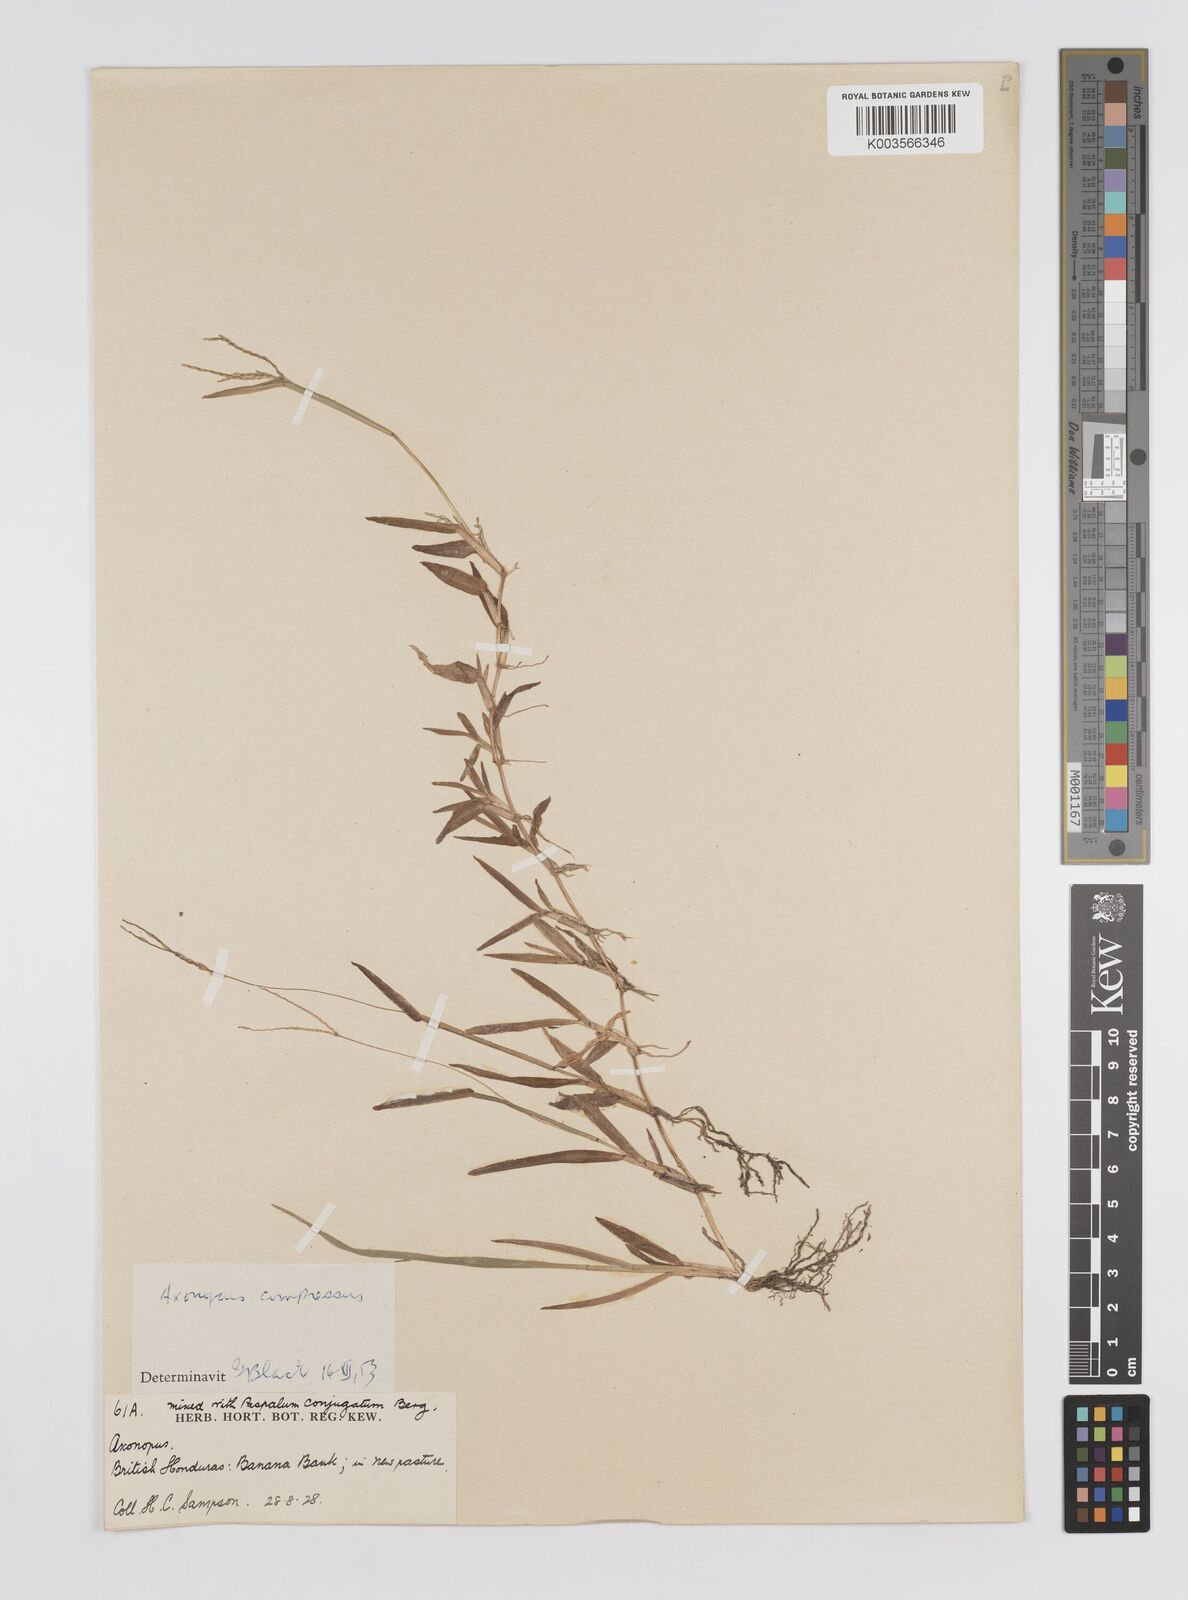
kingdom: Plantae
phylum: Tracheophyta
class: Liliopsida
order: Poales
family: Poaceae
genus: Axonopus
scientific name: Axonopus compressus
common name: American carpet grass
